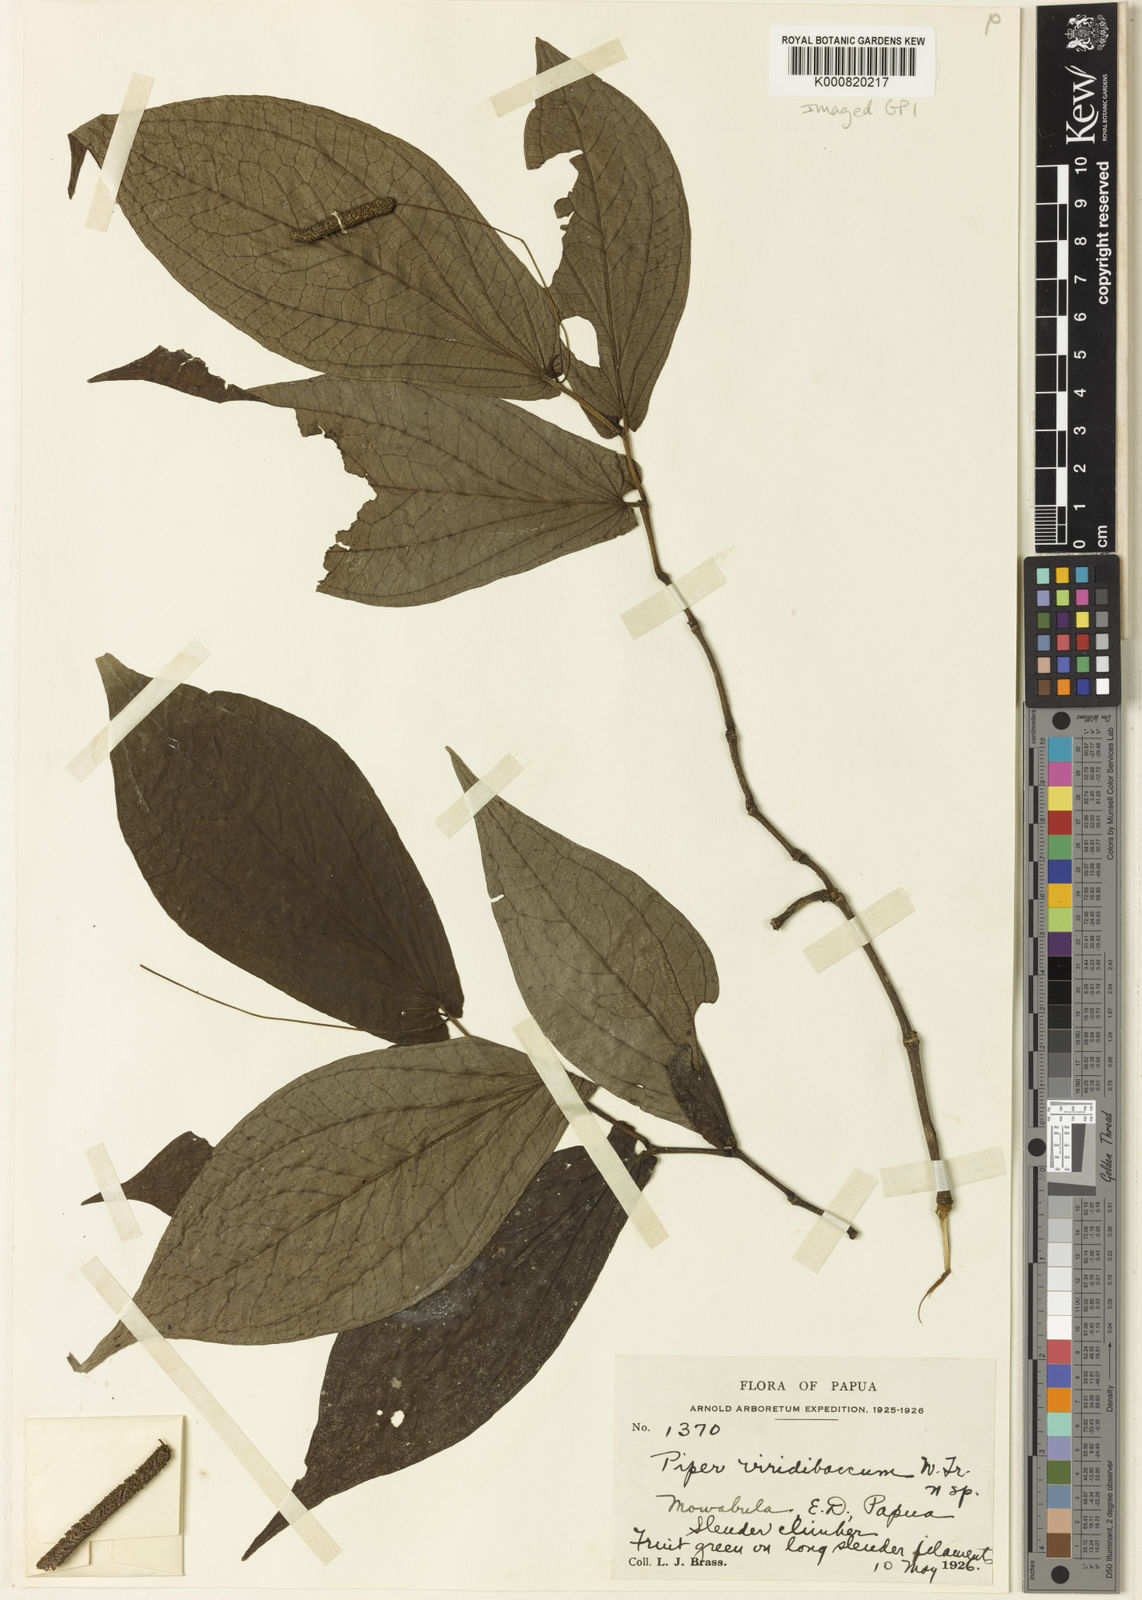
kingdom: Plantae
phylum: Tracheophyta
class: Magnoliopsida
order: Piperales
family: Piperaceae
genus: Piper
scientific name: Piper lessertianum
